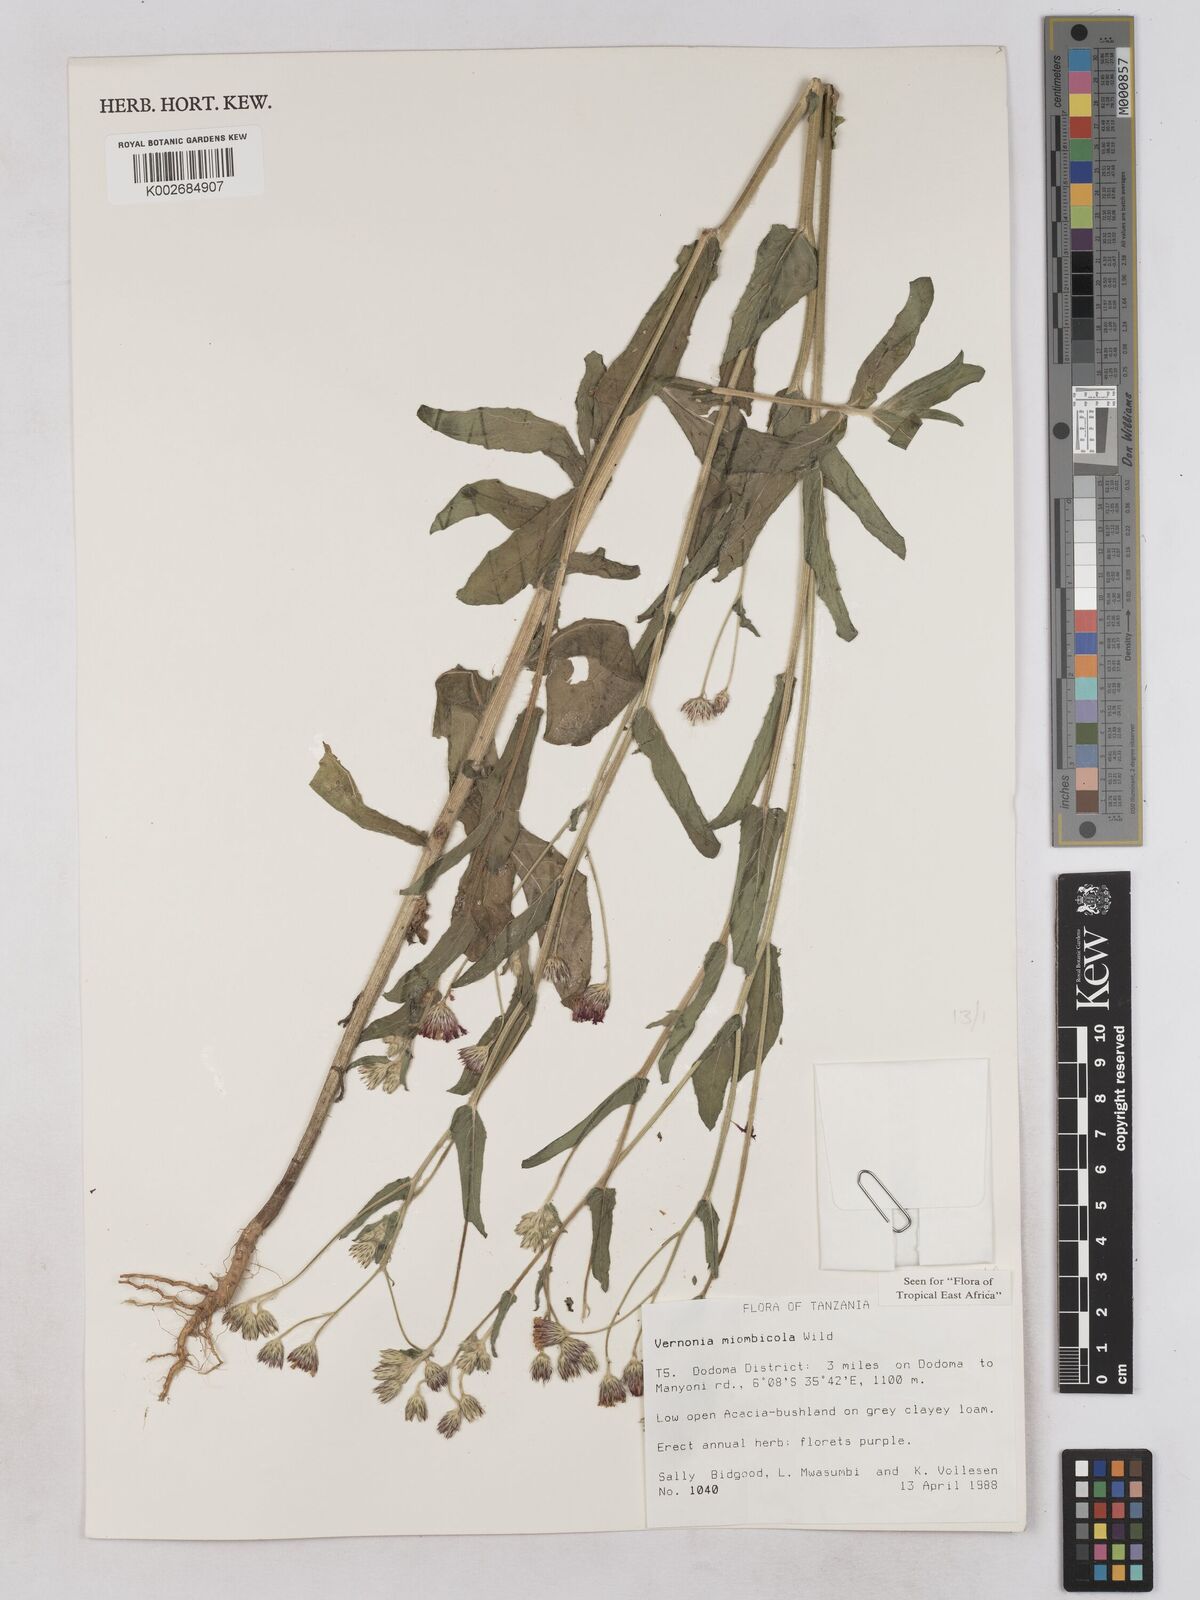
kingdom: Plantae
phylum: Tracheophyta
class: Magnoliopsida
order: Asterales
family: Asteraceae
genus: Vernonia
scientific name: Vernonia miombicola
